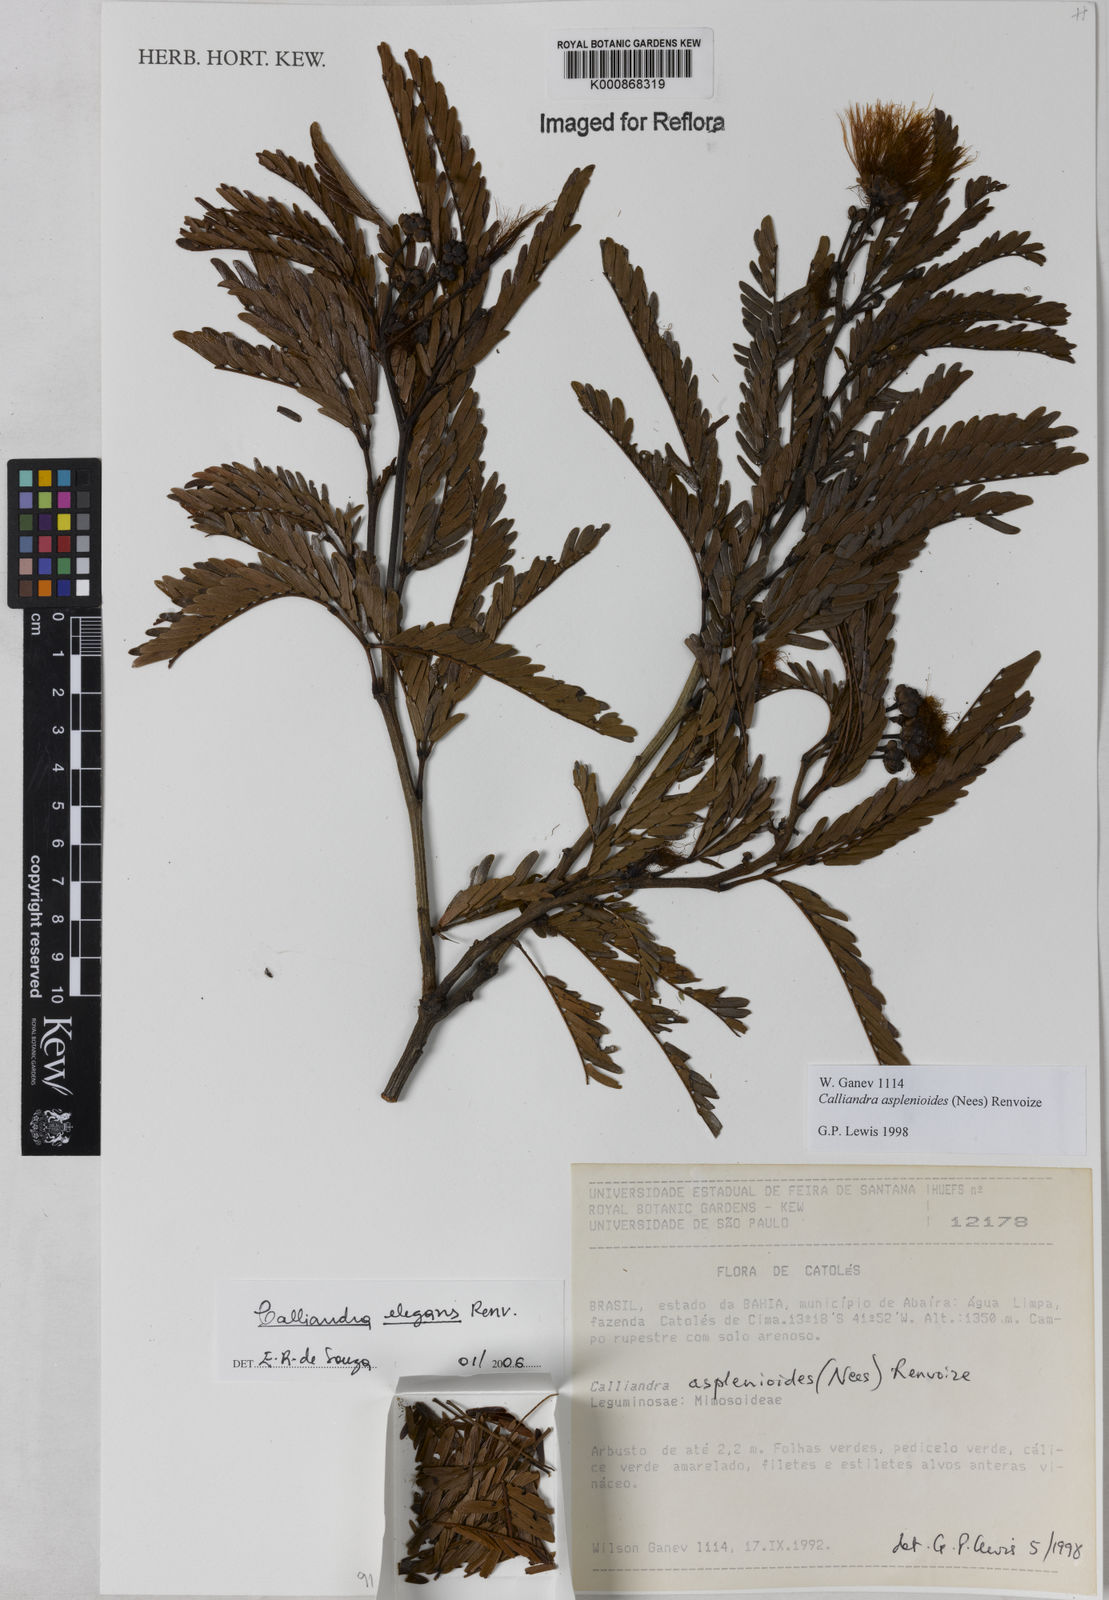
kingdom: Plantae
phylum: Tracheophyta
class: Magnoliopsida
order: Fabales
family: Fabaceae
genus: Calliandra
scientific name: Calliandra elegans
